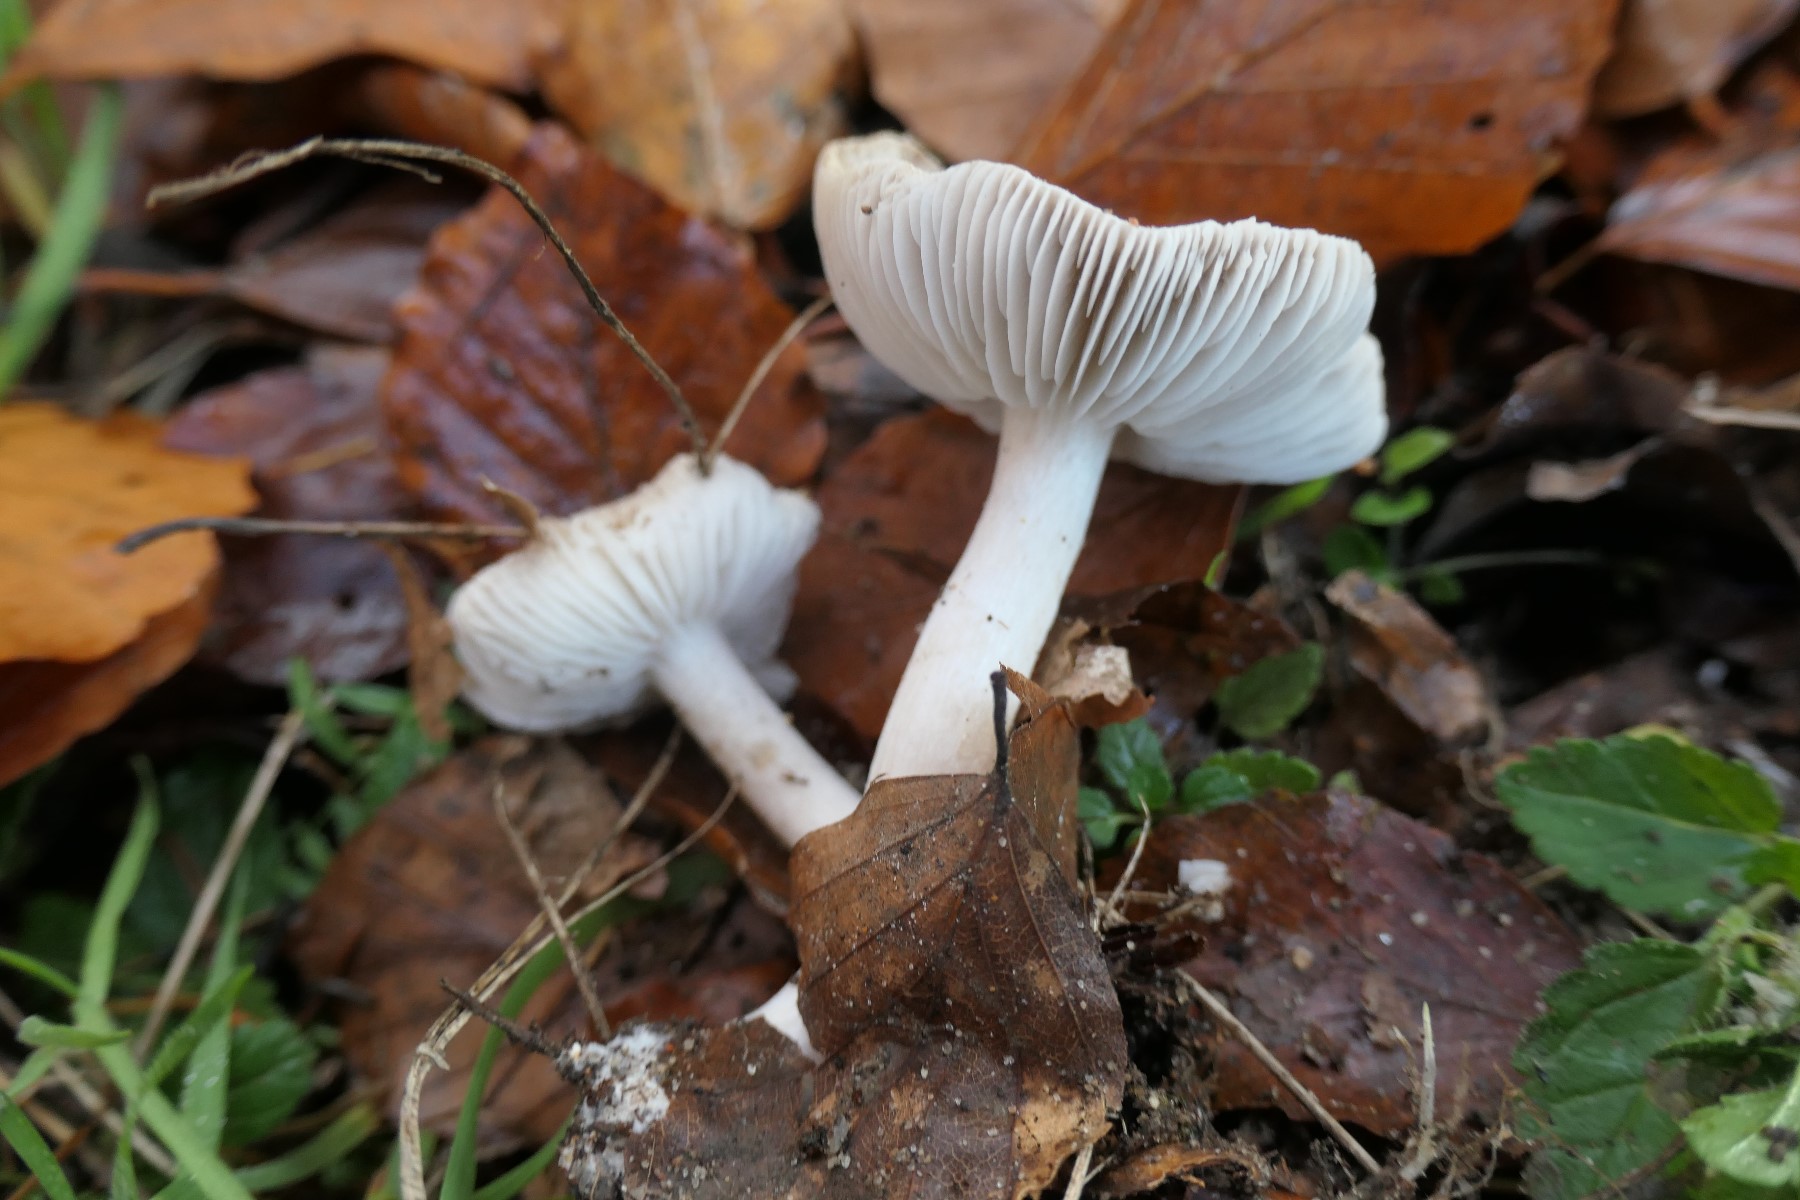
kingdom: Fungi
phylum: Basidiomycota
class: Agaricomycetes
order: Agaricales
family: Tricholomataceae
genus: Tricholoma
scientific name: Tricholoma scalpturatum
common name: gulplettet ridderhat
